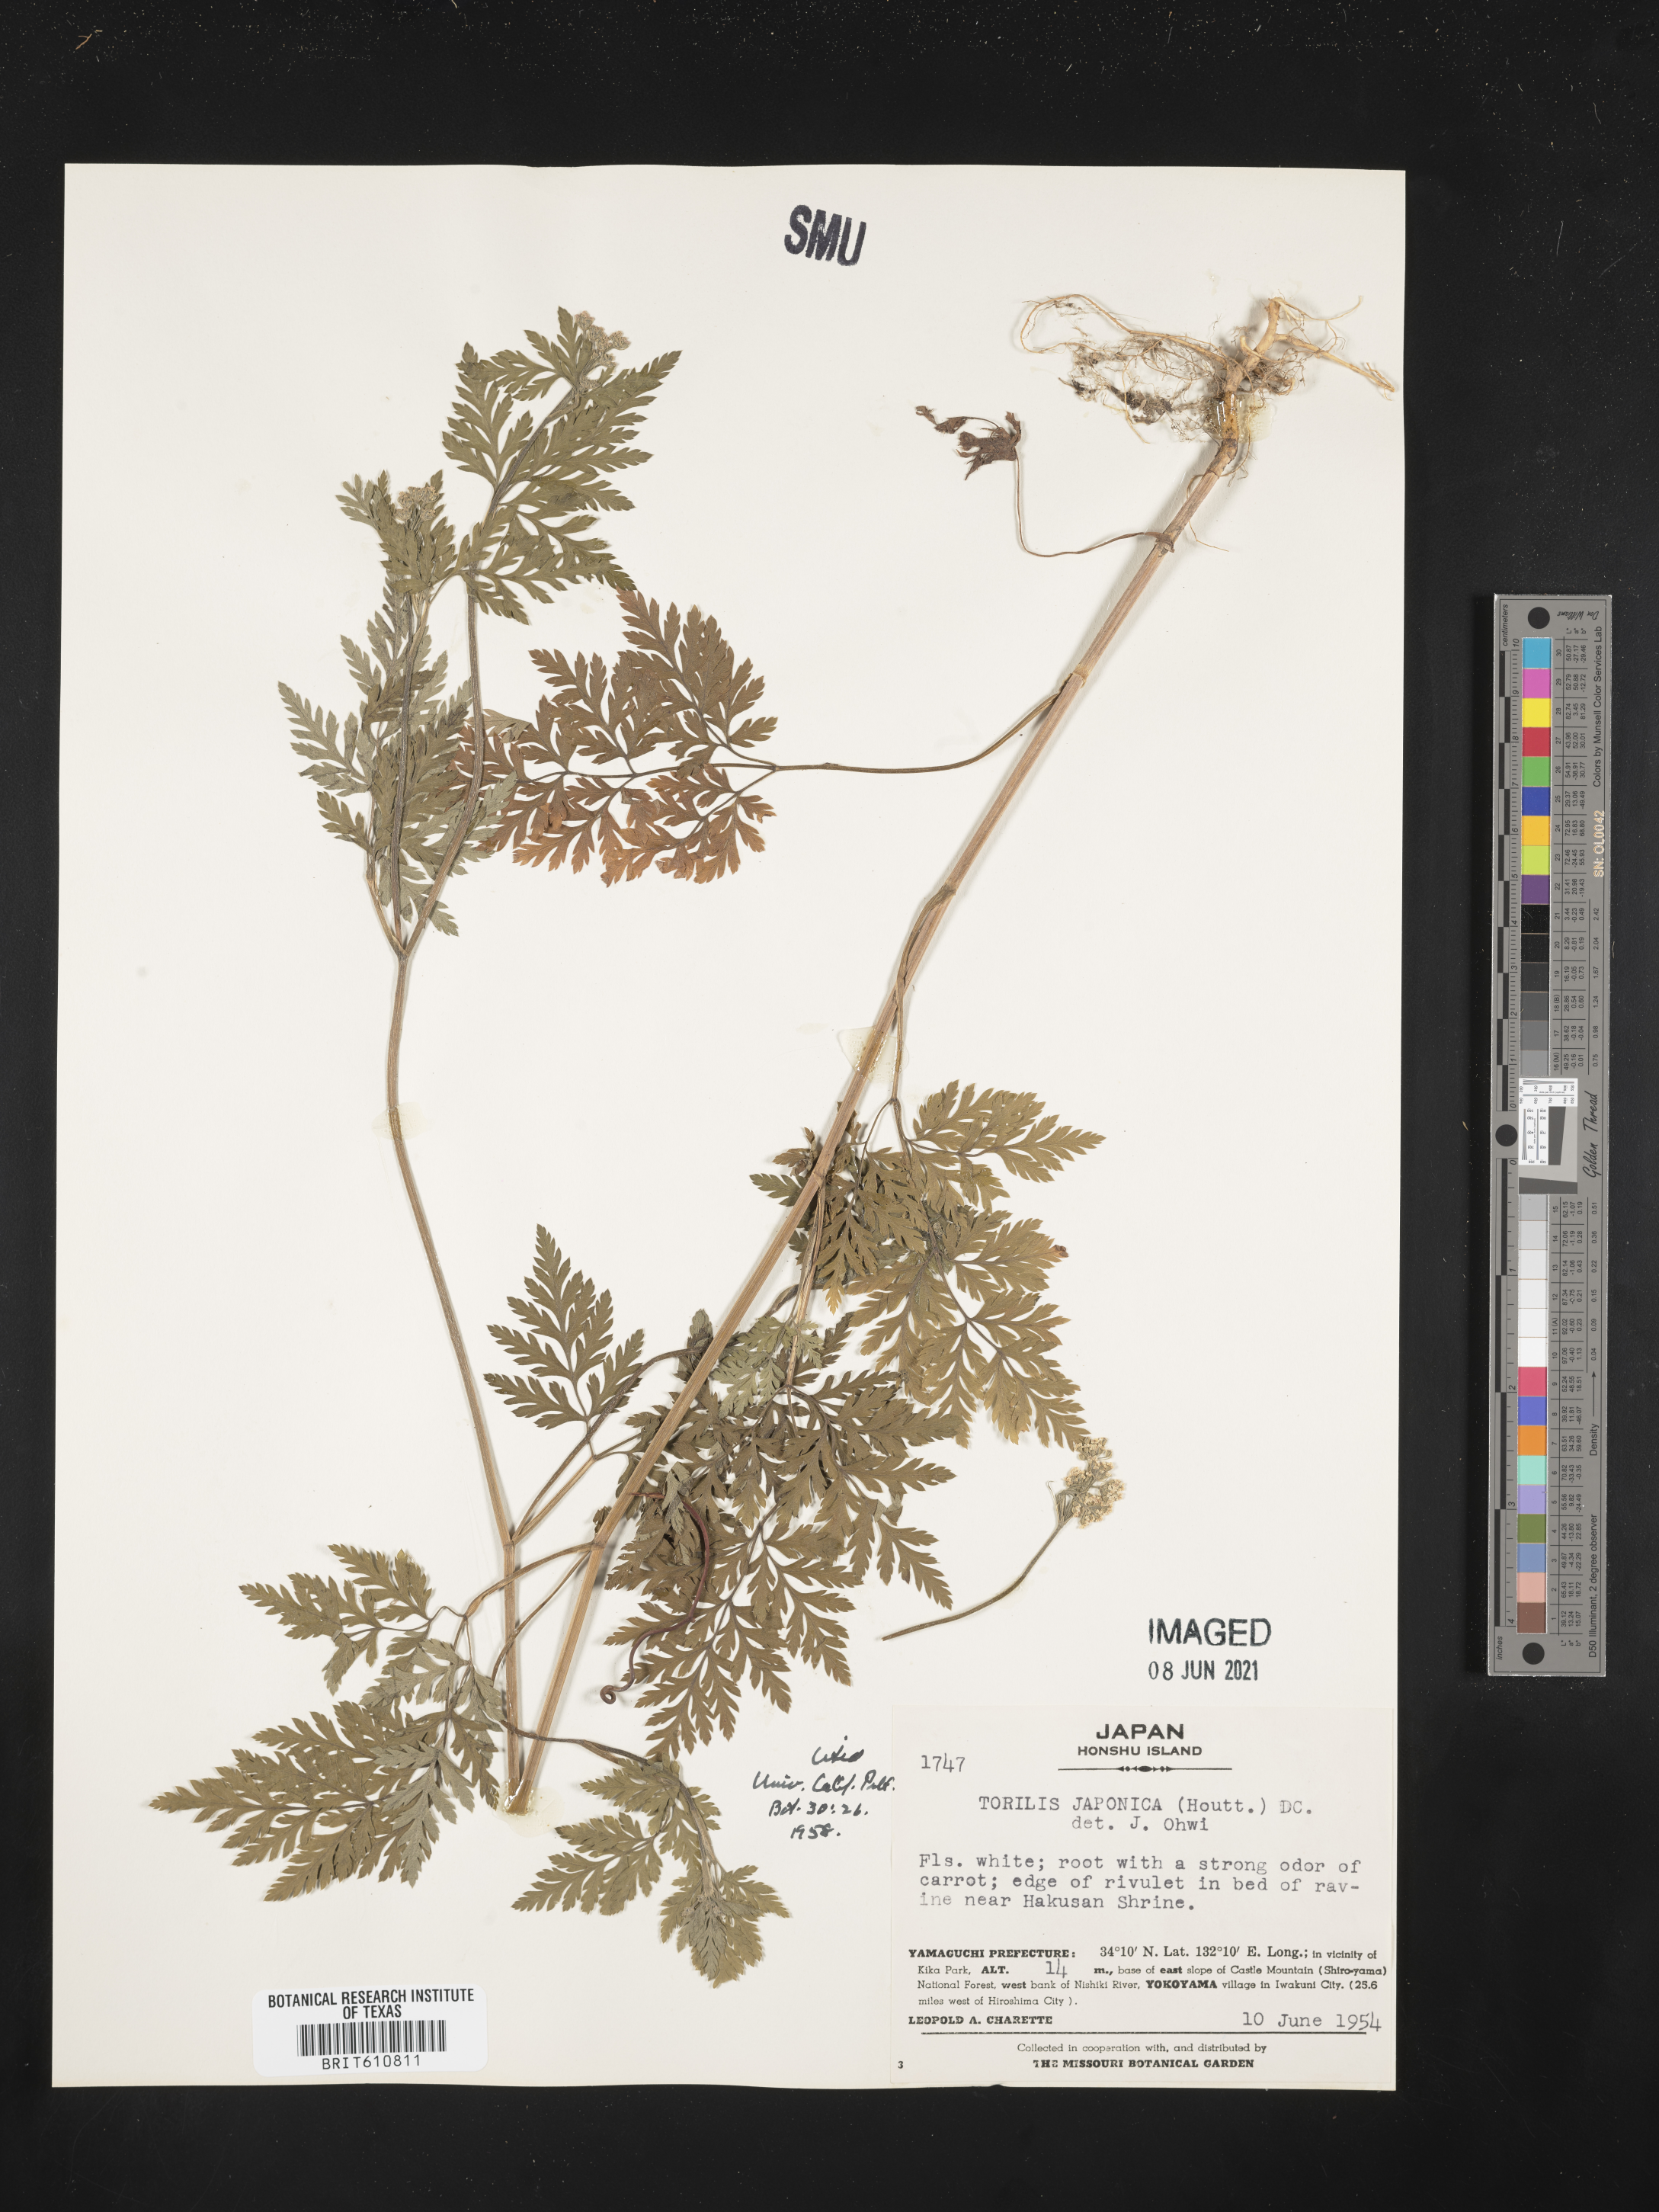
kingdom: Plantae
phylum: Tracheophyta
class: Magnoliopsida
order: Apiales
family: Apiaceae
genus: Torilis
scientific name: Torilis japonica
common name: Upright hedge-parsley
